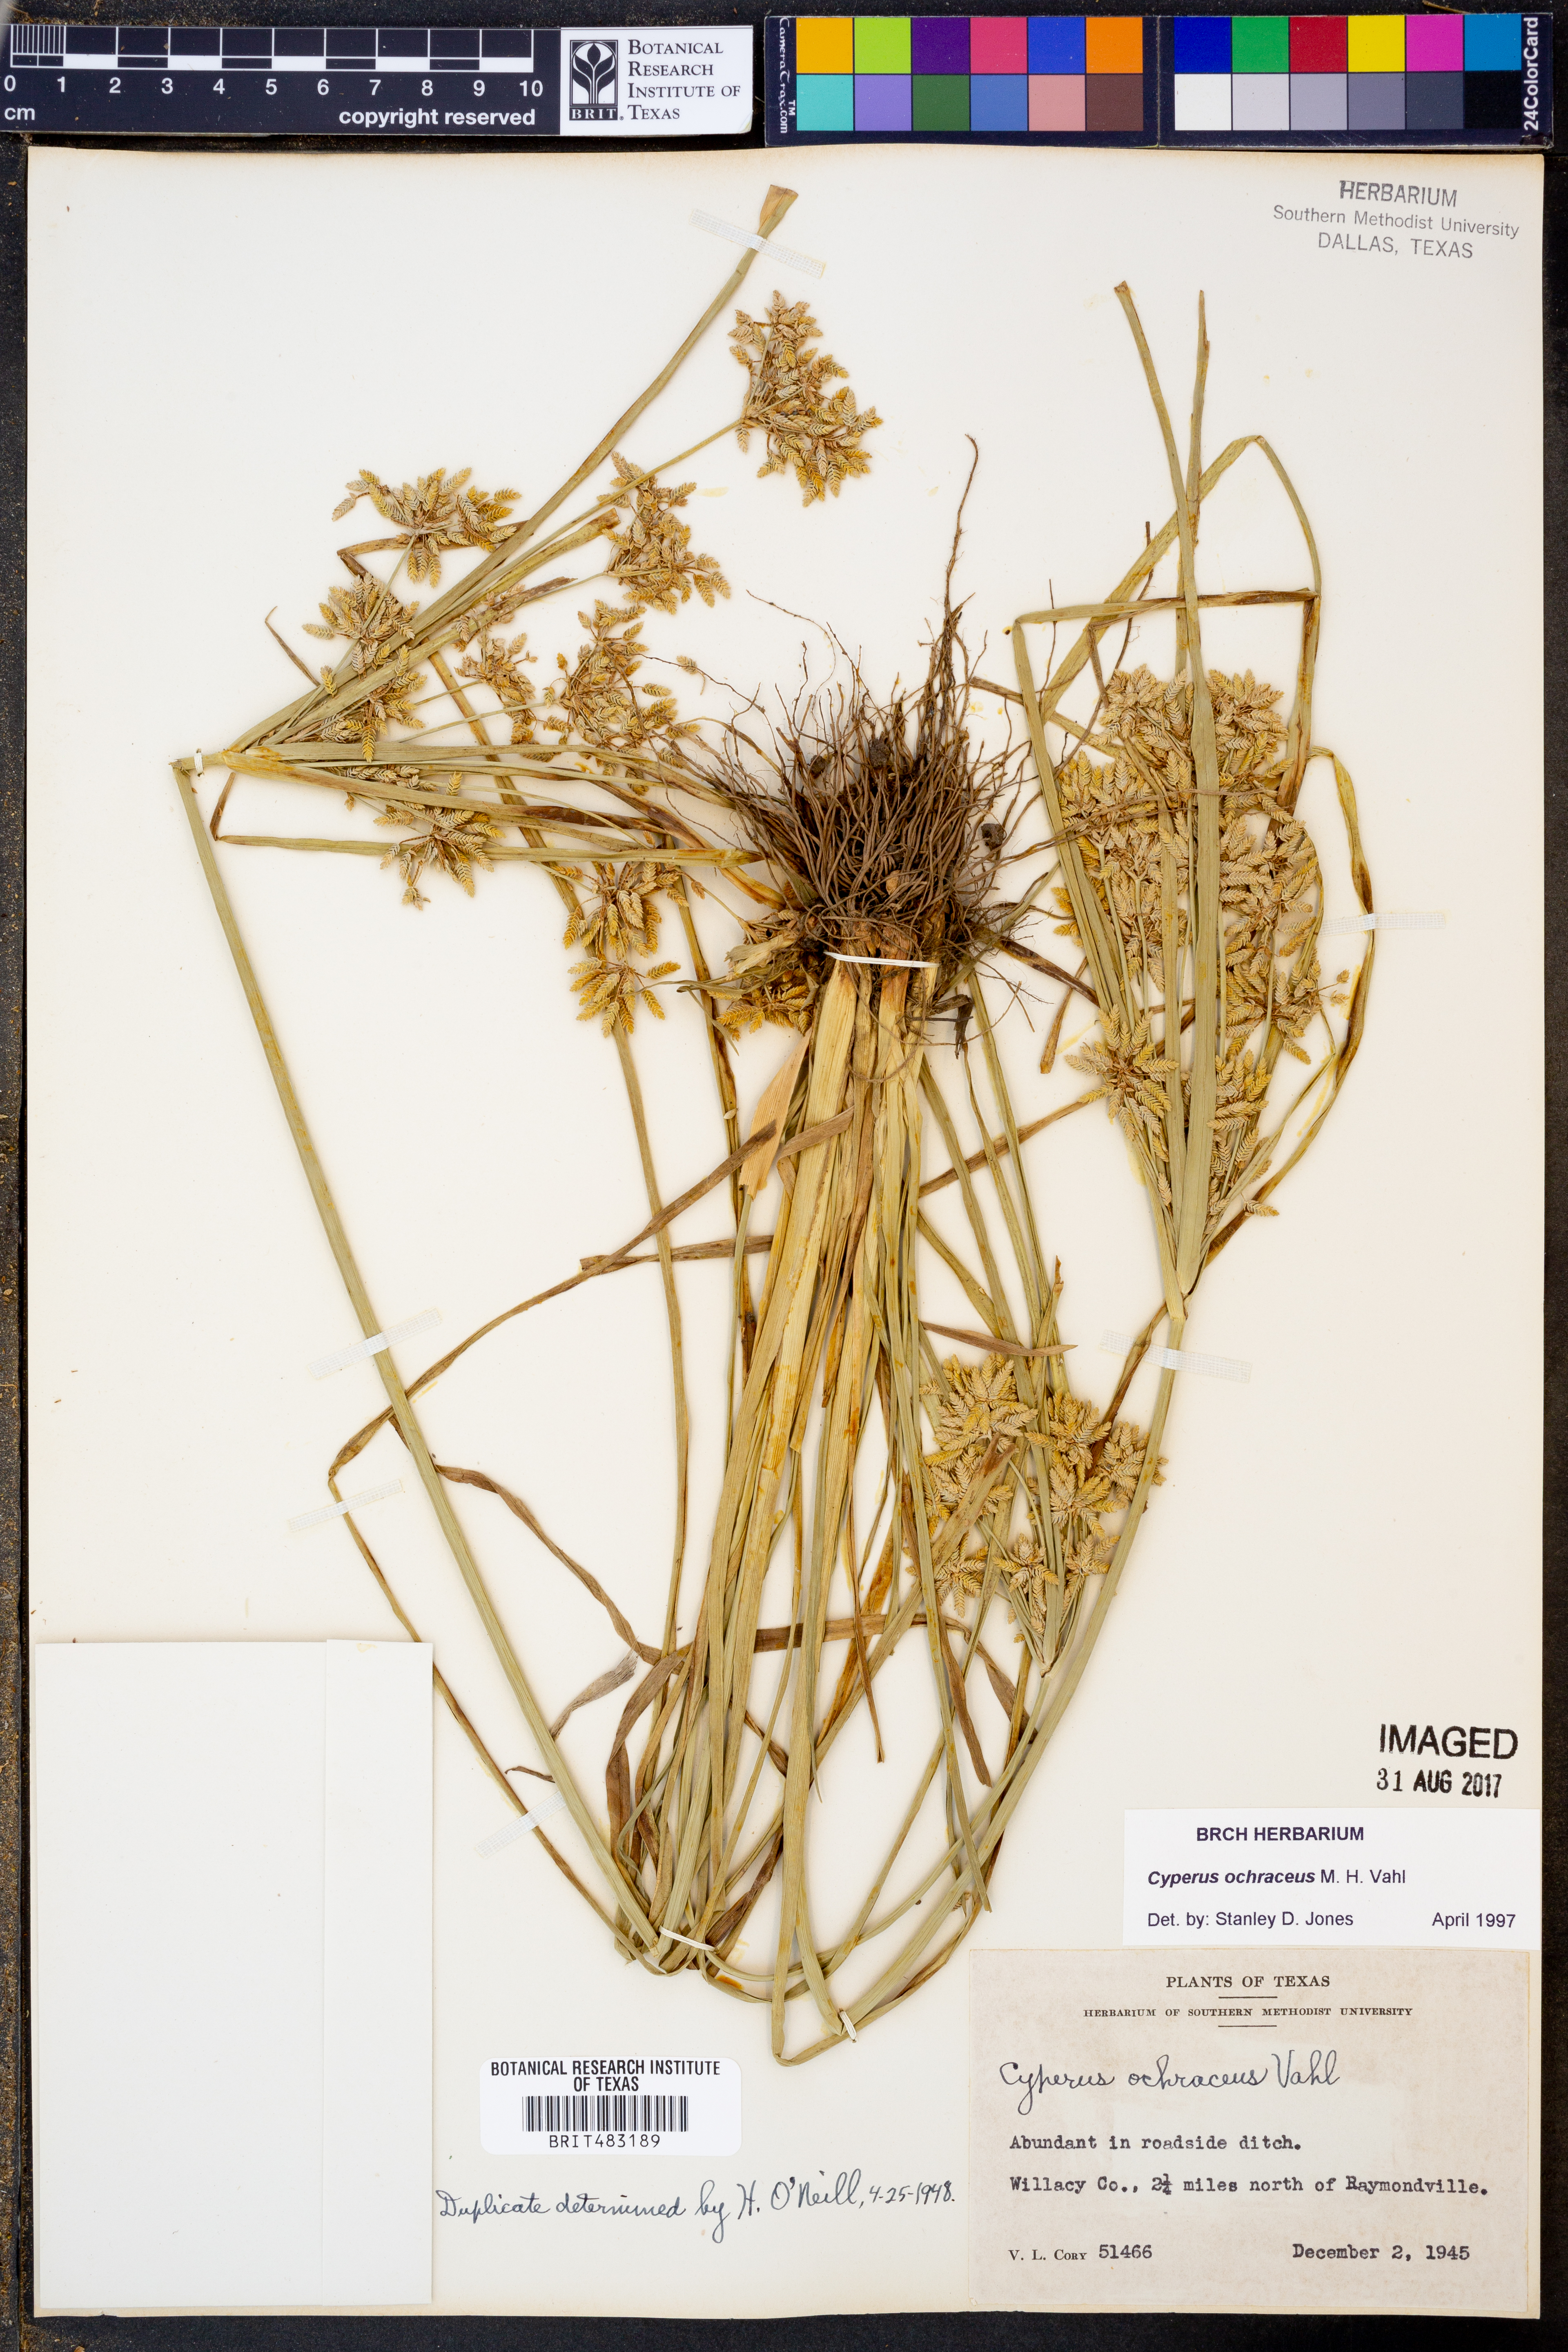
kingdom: Plantae
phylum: Tracheophyta
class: Liliopsida
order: Poales
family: Cyperaceae
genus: Cyperus
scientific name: Cyperus ochraceus
